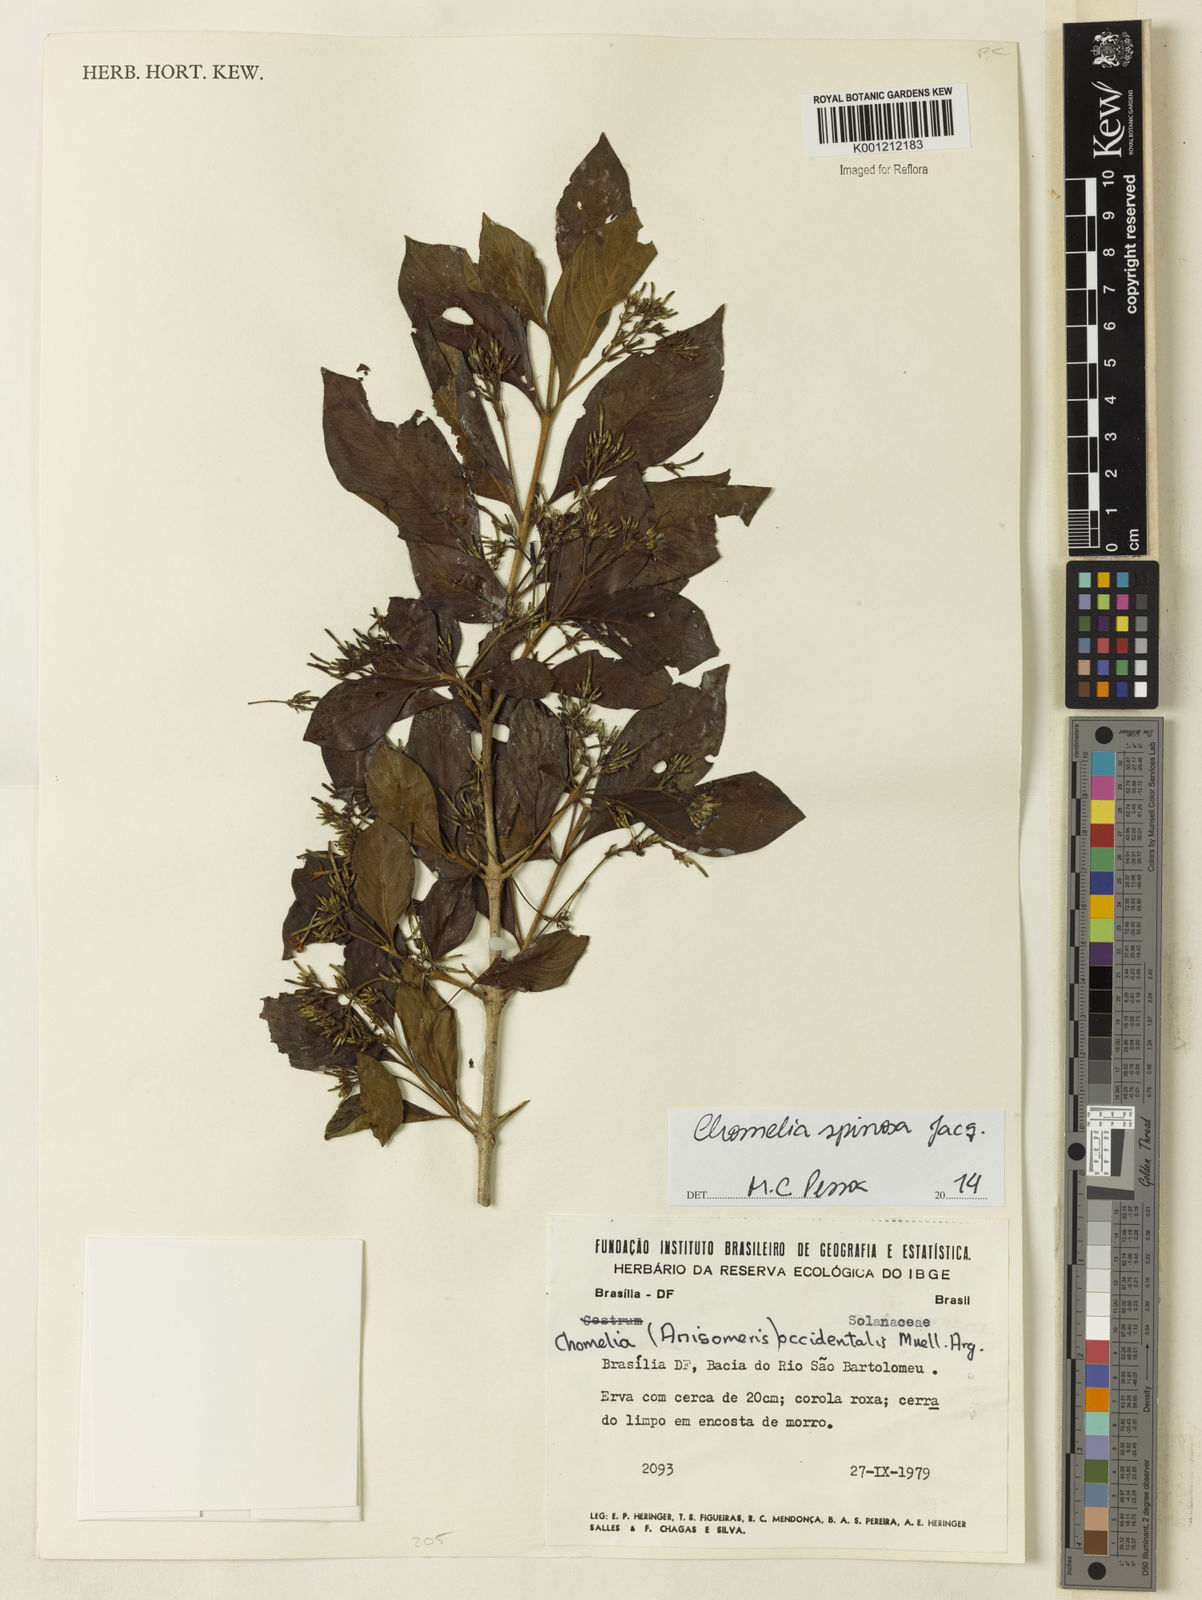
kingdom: Plantae
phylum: Tracheophyta
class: Magnoliopsida
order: Gentianales
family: Rubiaceae
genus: Chomelia
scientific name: Chomelia spinosa
